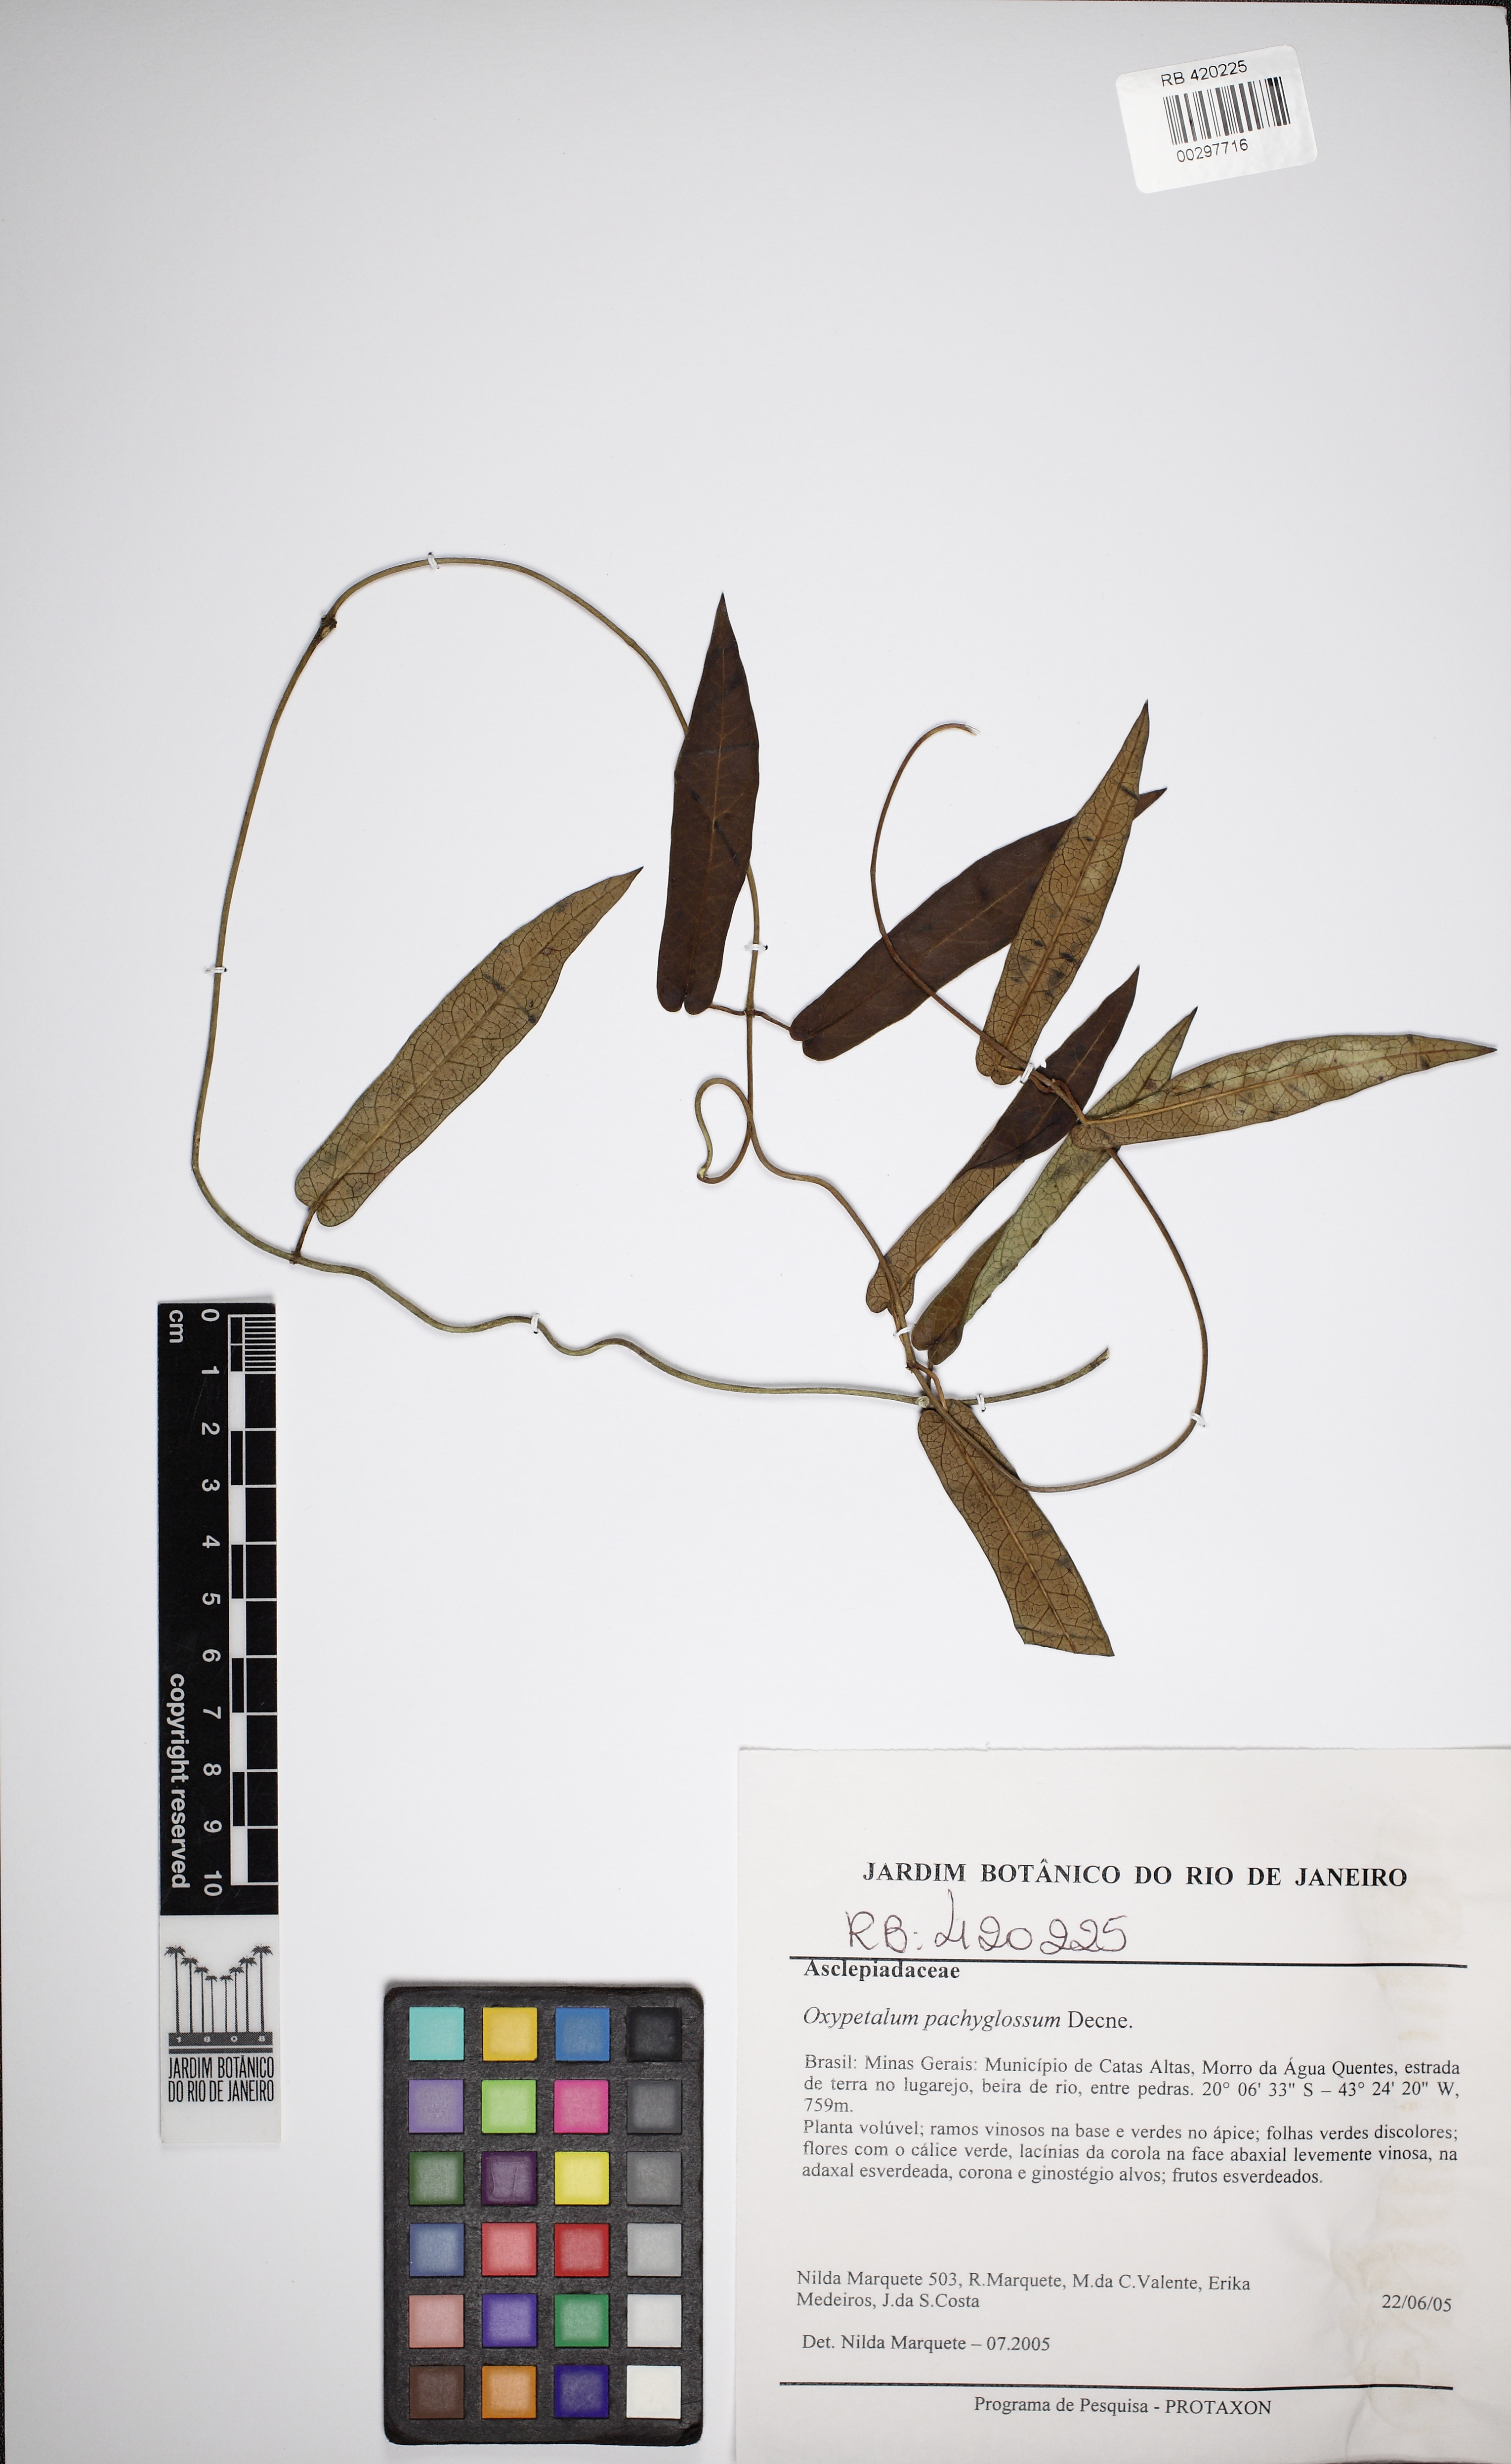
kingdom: Plantae
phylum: Tracheophyta
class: Magnoliopsida
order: Gentianales
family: Apocynaceae
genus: Oxypetalum
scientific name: Oxypetalum pachyglossum
